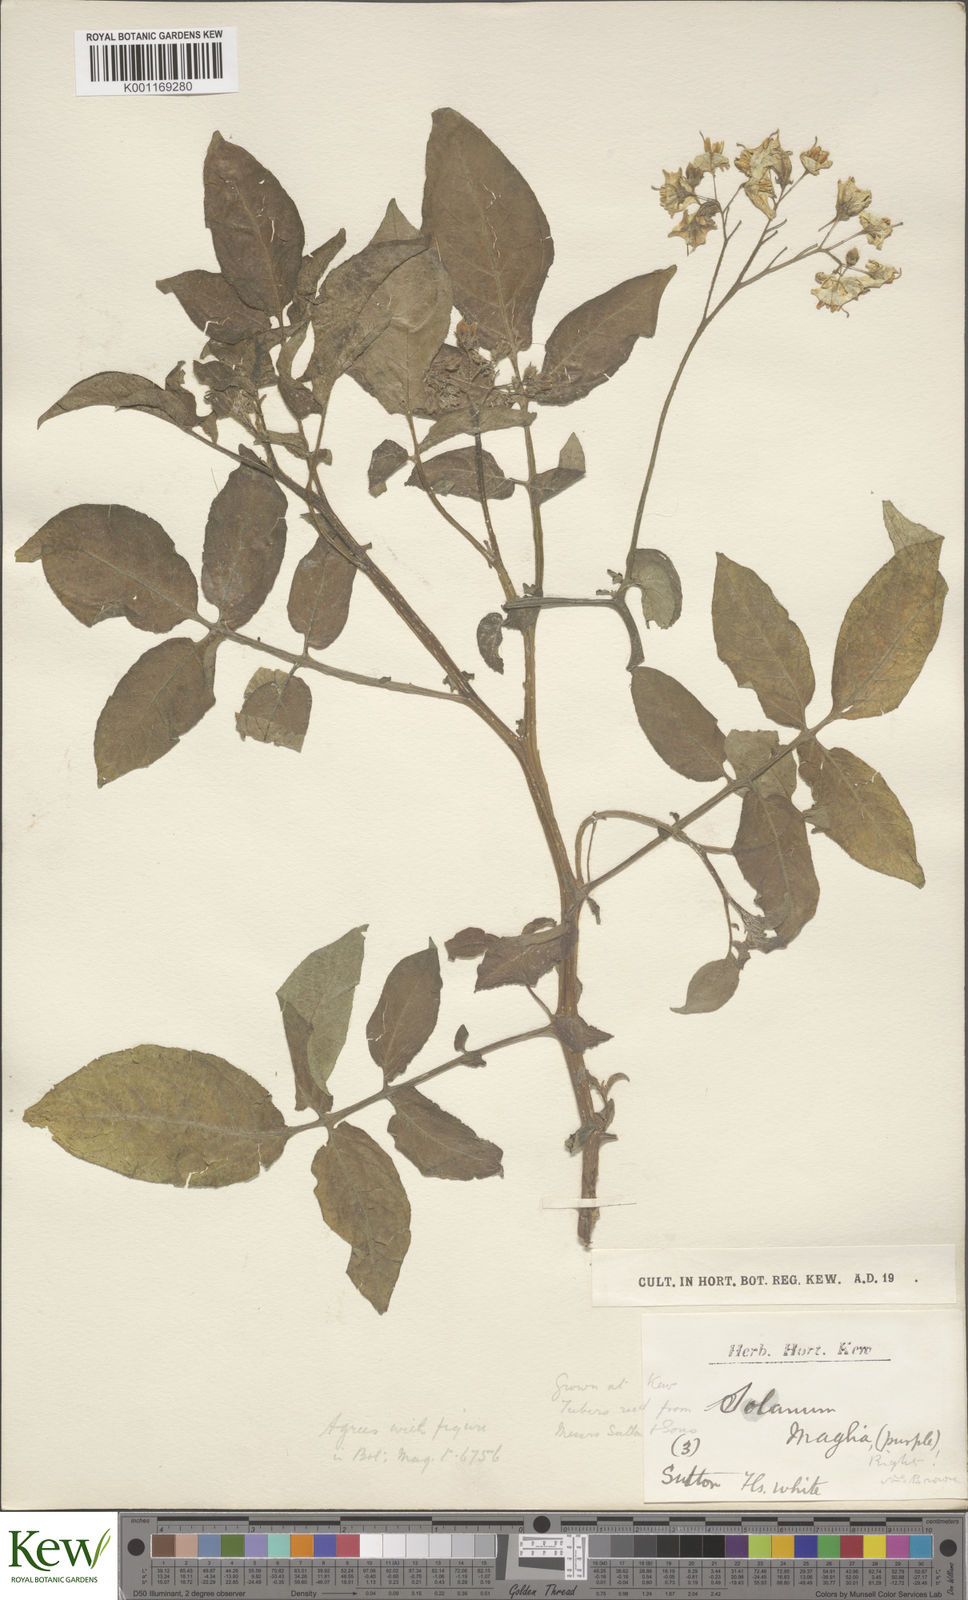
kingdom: Plantae
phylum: Tracheophyta
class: Magnoliopsida
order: Solanales
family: Solanaceae
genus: Solanum
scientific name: Solanum maglia
